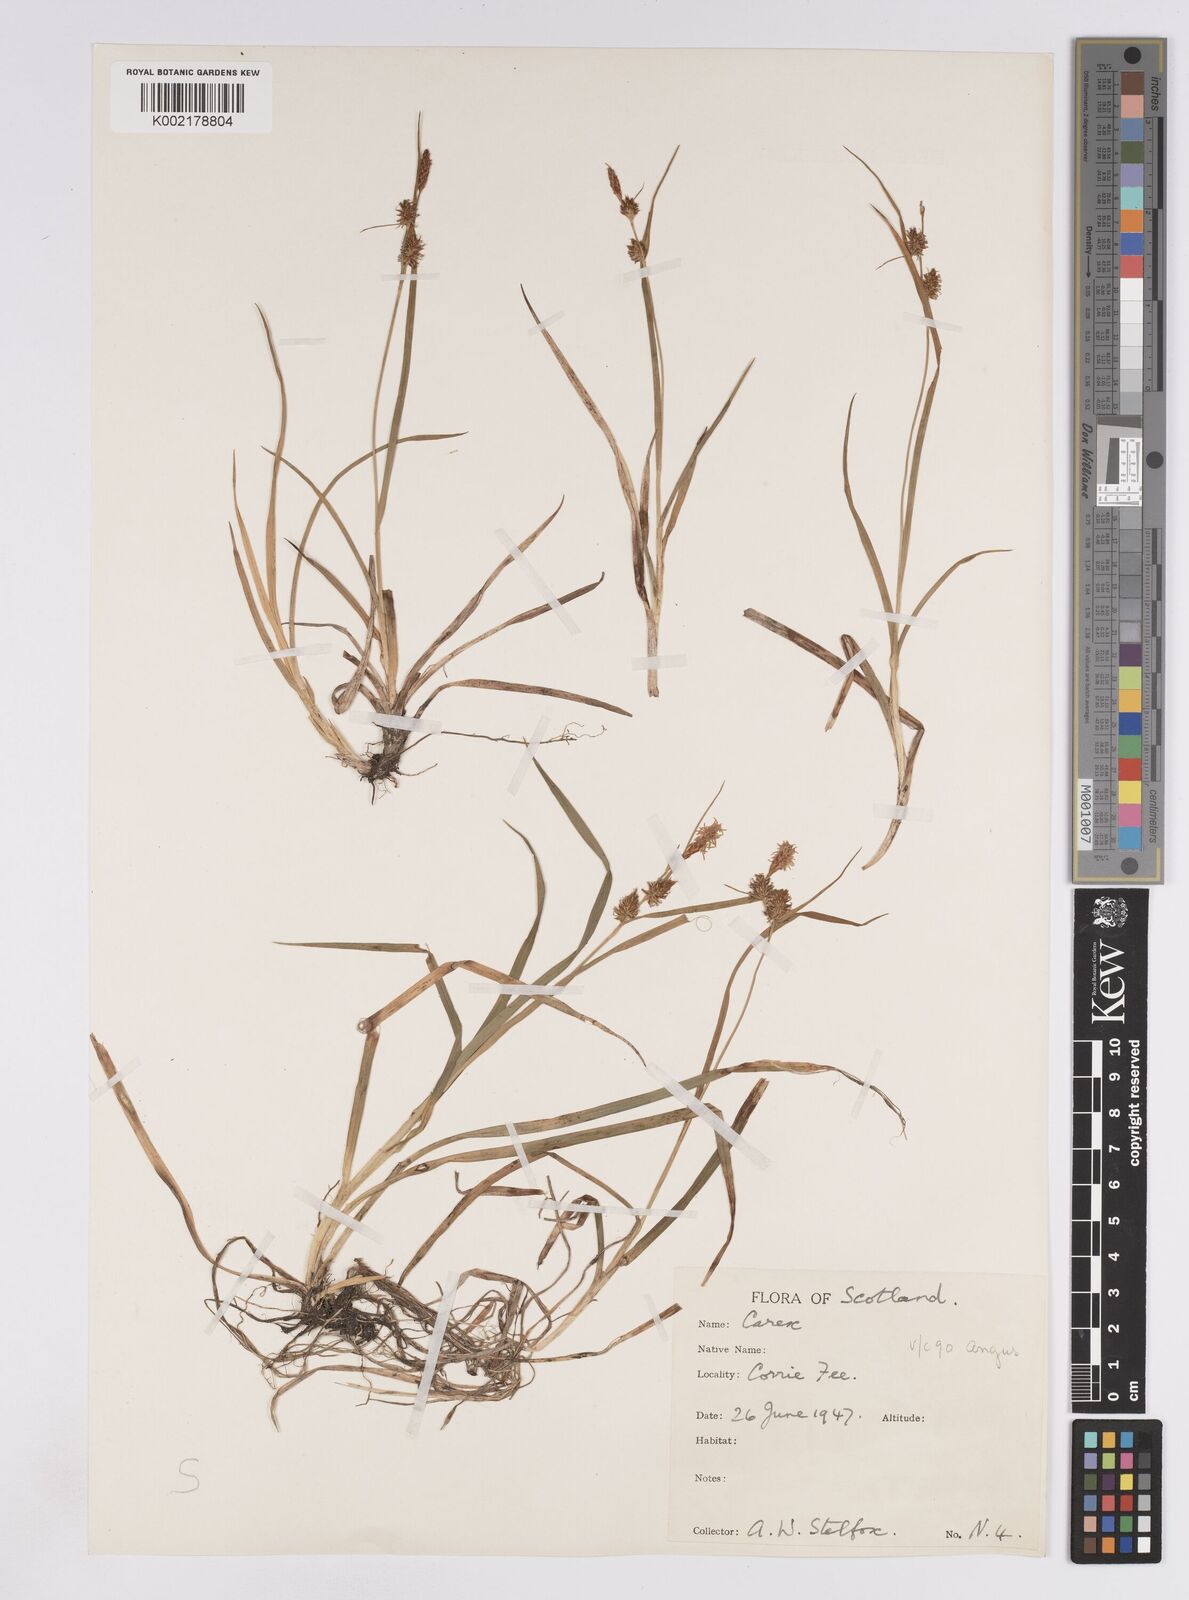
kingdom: Plantae
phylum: Tracheophyta
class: Liliopsida
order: Poales
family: Cyperaceae
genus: Carex
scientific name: Carex lepidocarpa
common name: Long-stalked yellow-sedge
